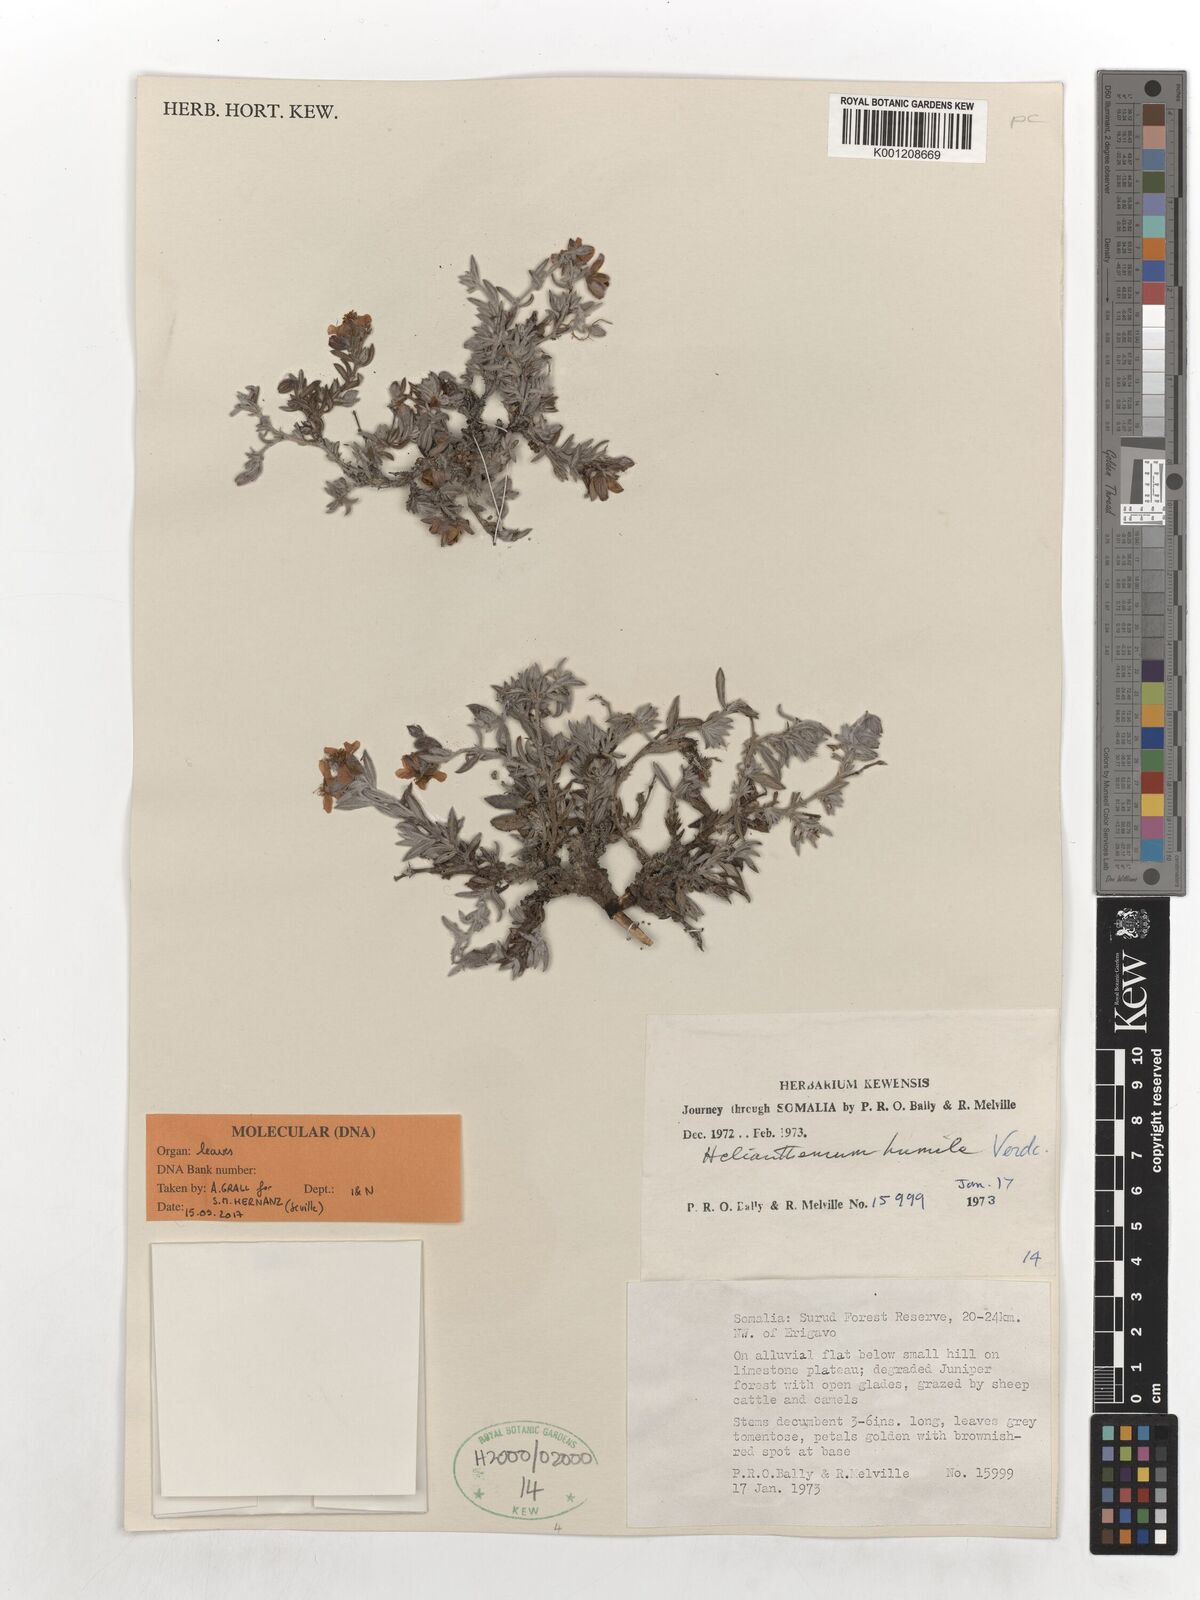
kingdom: Plantae
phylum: Tracheophyta
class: Magnoliopsida
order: Malvales
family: Cistaceae
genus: Helianthemum
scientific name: Helianthemum humile
